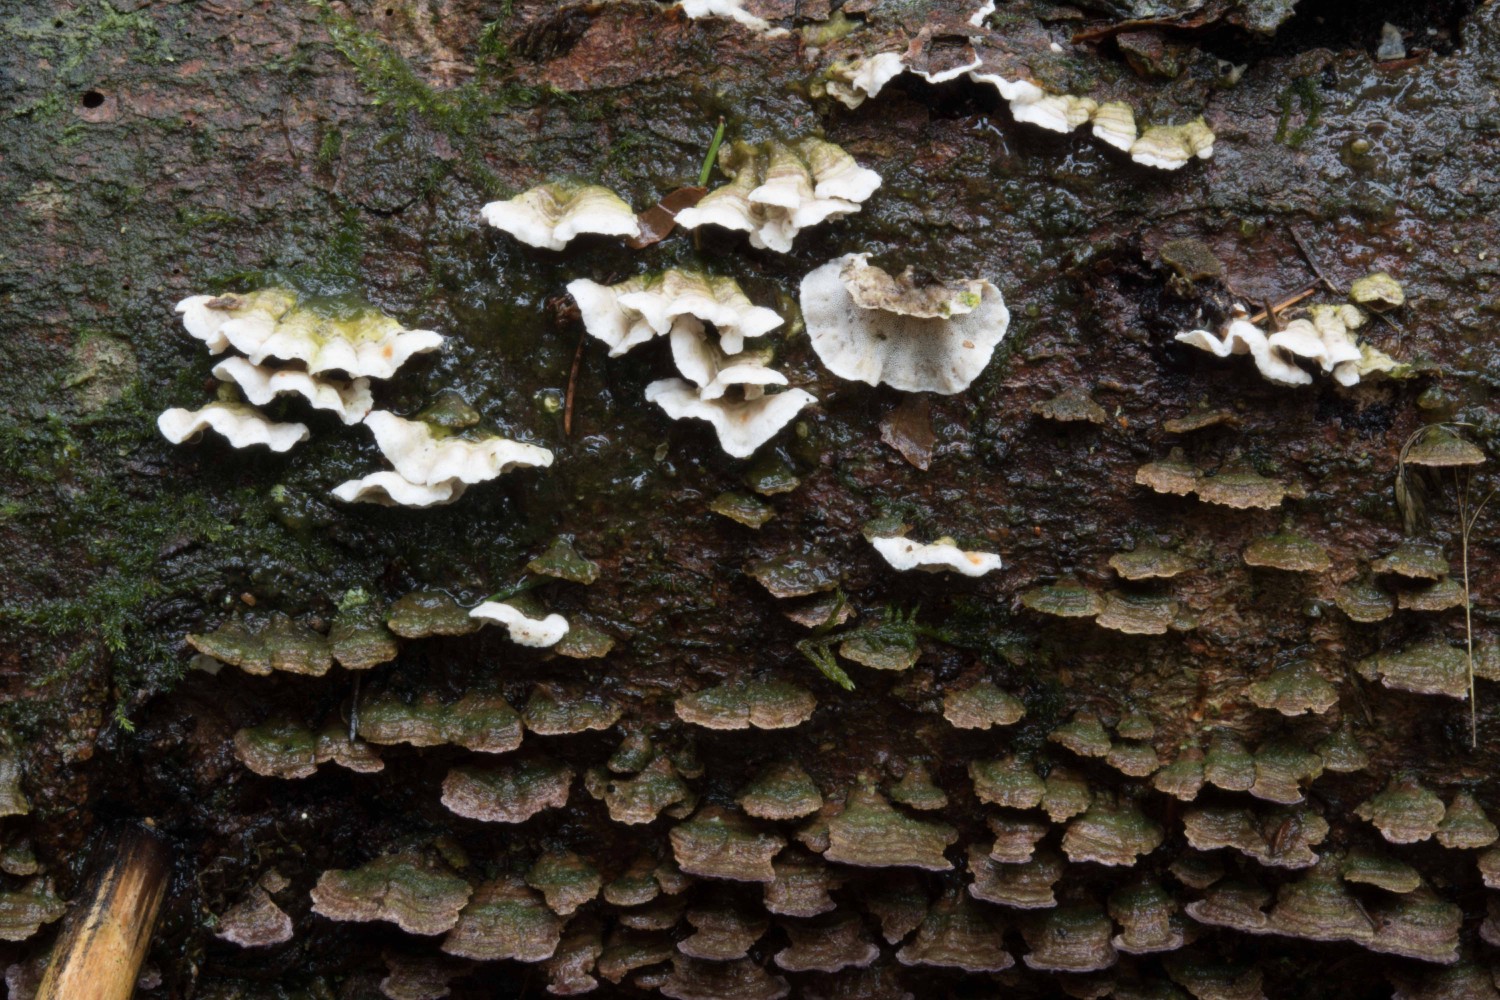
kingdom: Fungi
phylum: Basidiomycota
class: Agaricomycetes
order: Polyporales
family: Incrustoporiaceae
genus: Skeletocutis
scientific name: Skeletocutis carneogrisea
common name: rødgrå krystalporesvamp
